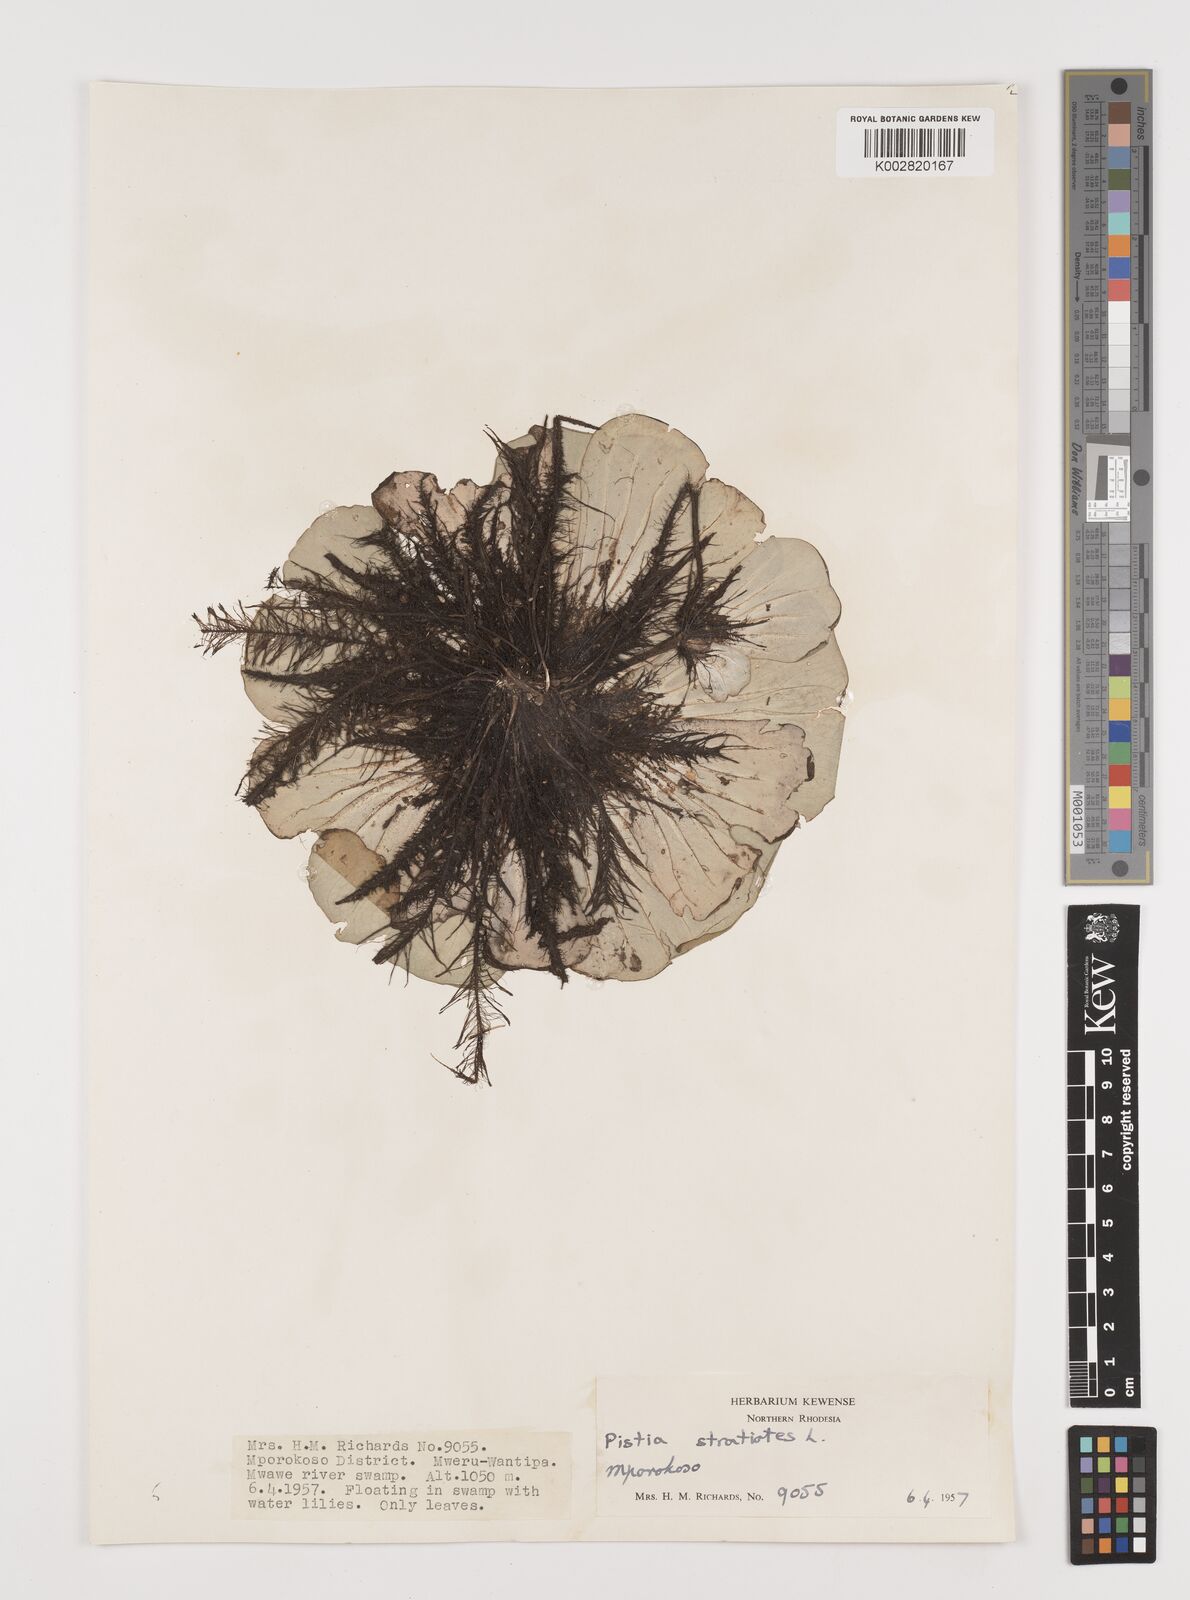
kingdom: Plantae
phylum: Tracheophyta
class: Liliopsida
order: Alismatales
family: Araceae
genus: Pistia
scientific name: Pistia stratiotes
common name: Water lettuce
